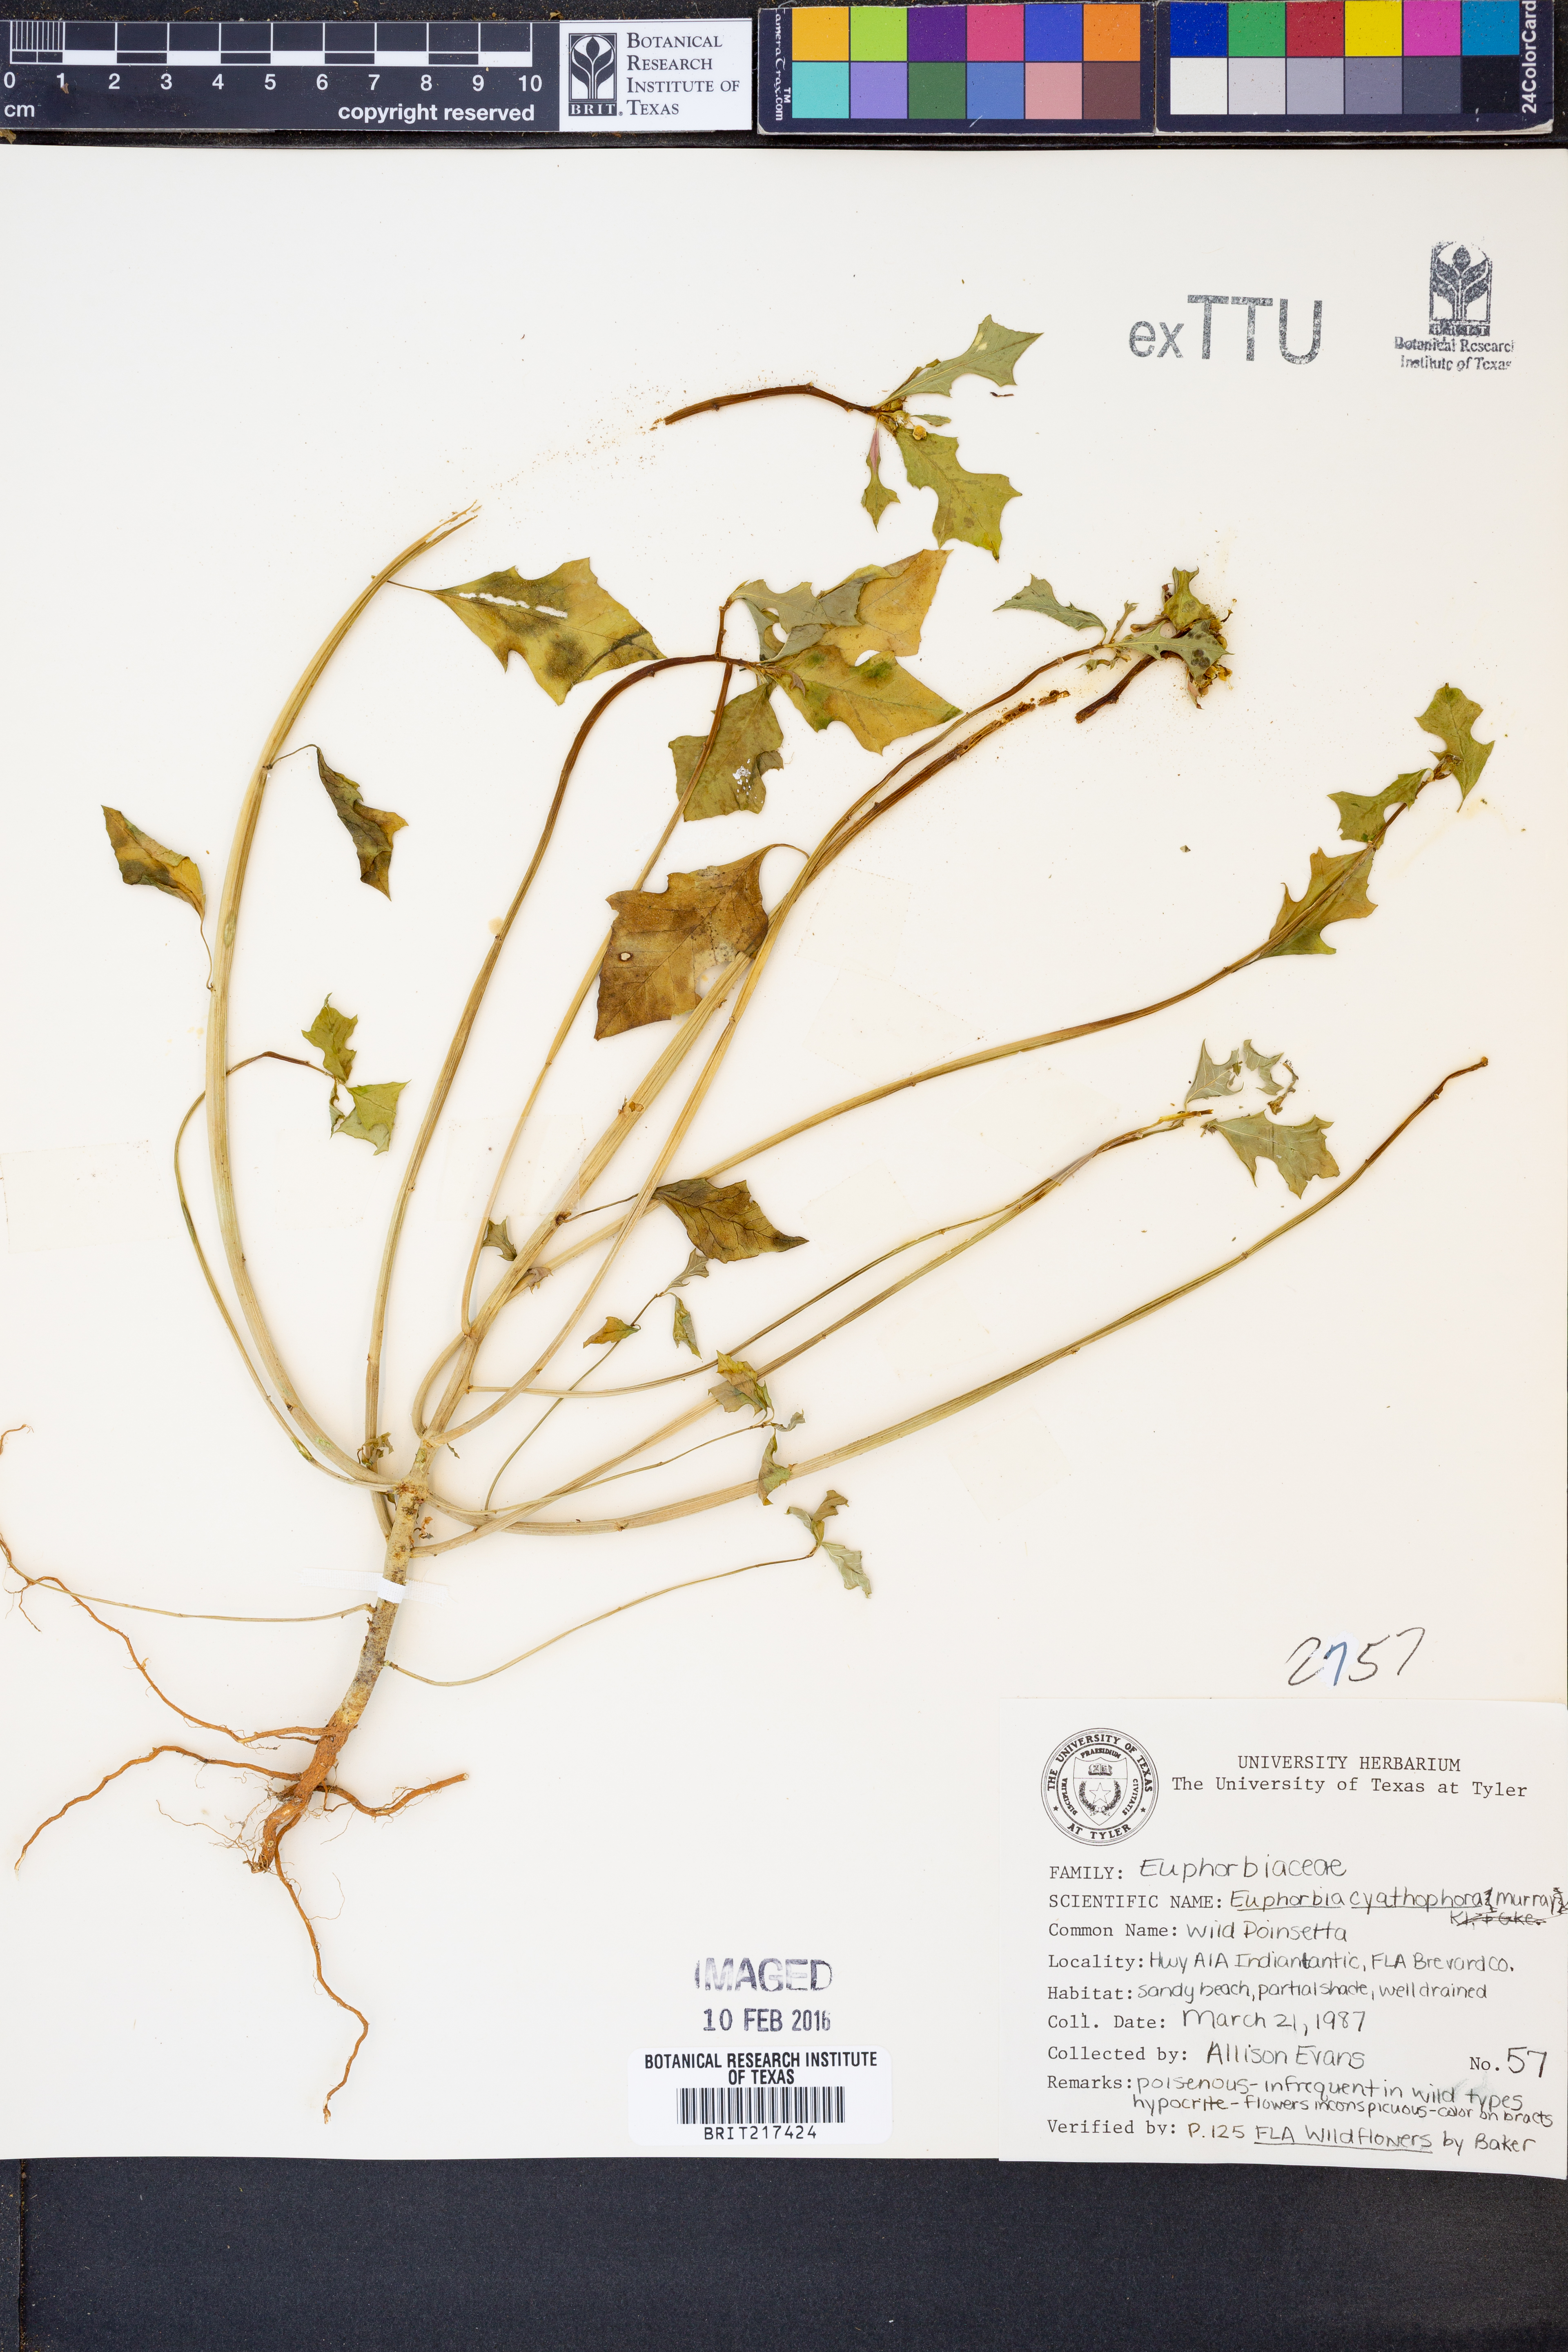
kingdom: Plantae
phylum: Tracheophyta
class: Magnoliopsida
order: Malpighiales
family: Euphorbiaceae
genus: Euphorbia
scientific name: Euphorbia heterophylla
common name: Mexican fireplant
